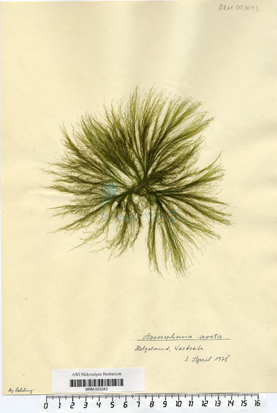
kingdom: Plantae
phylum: Chlorophyta
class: Ulvophyceae
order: Ulotrichales
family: Ulotrichaceae
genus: Acrosiphonia
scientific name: Acrosiphonia arcta
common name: Green tarantula weed
